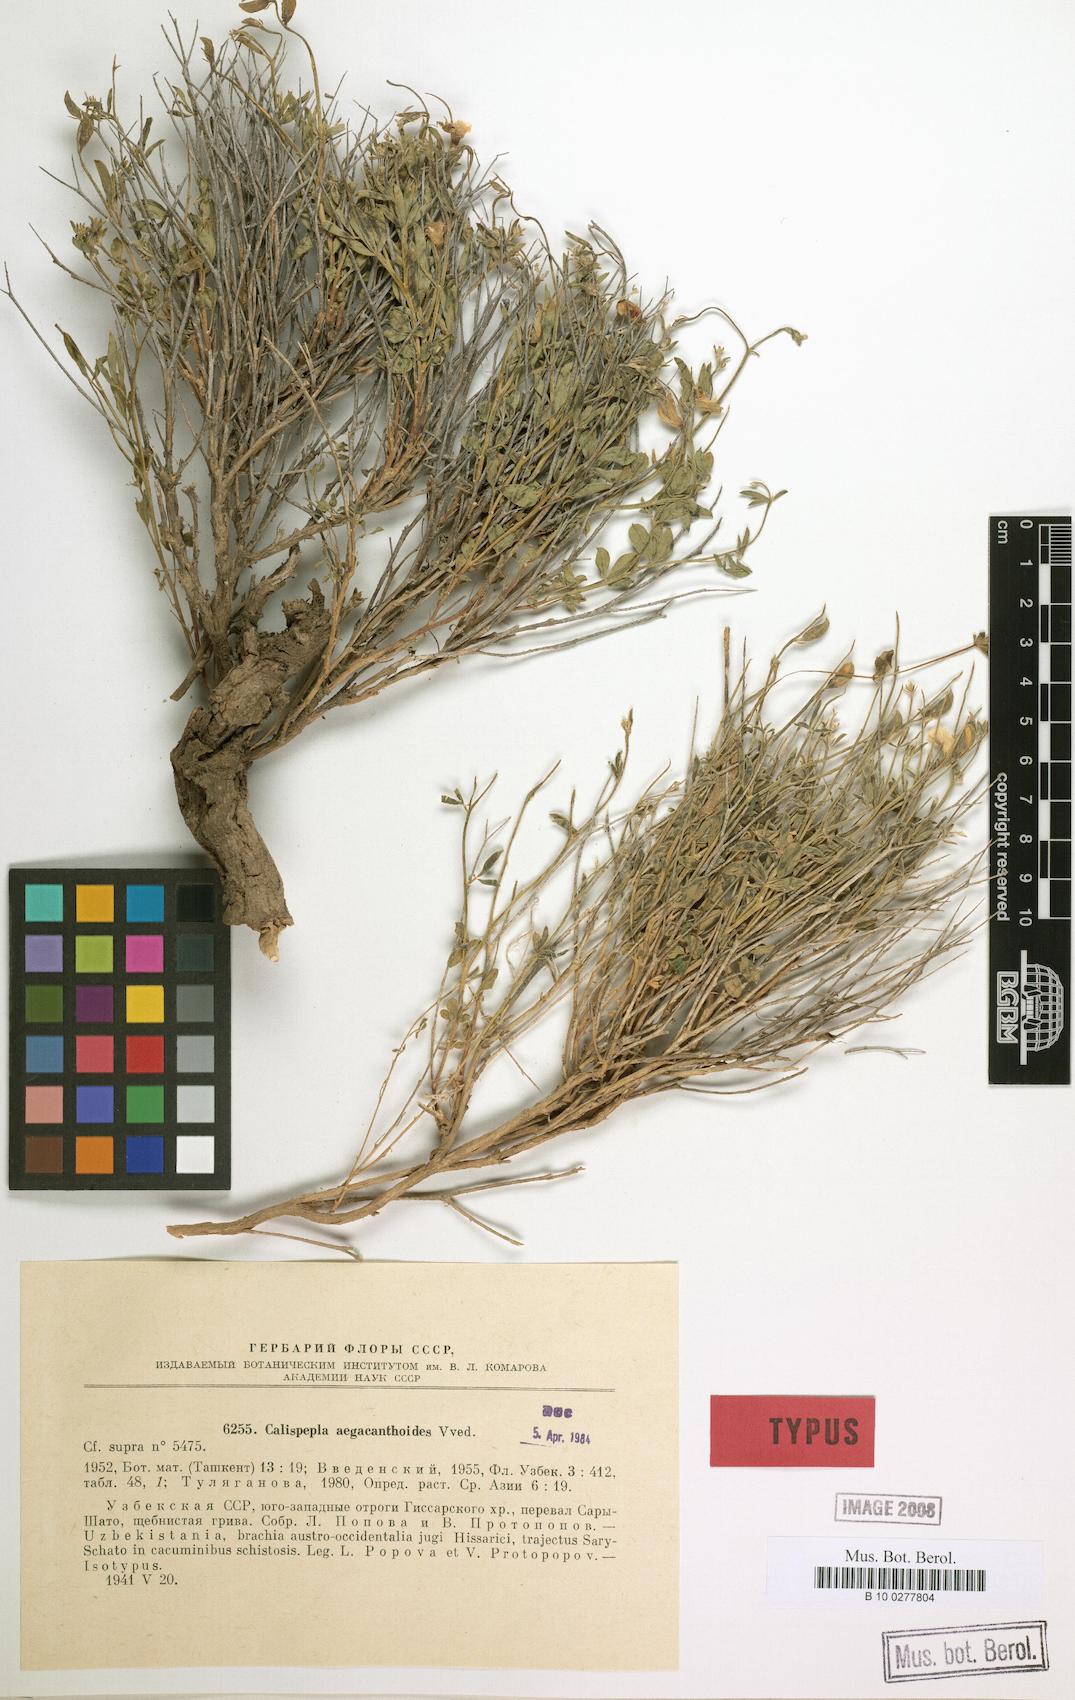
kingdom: Plantae
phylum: Tracheophyta
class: Magnoliopsida
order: Fabales
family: Fabaceae
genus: Argyrolobium
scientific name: Argyrolobium aegacanthoides
